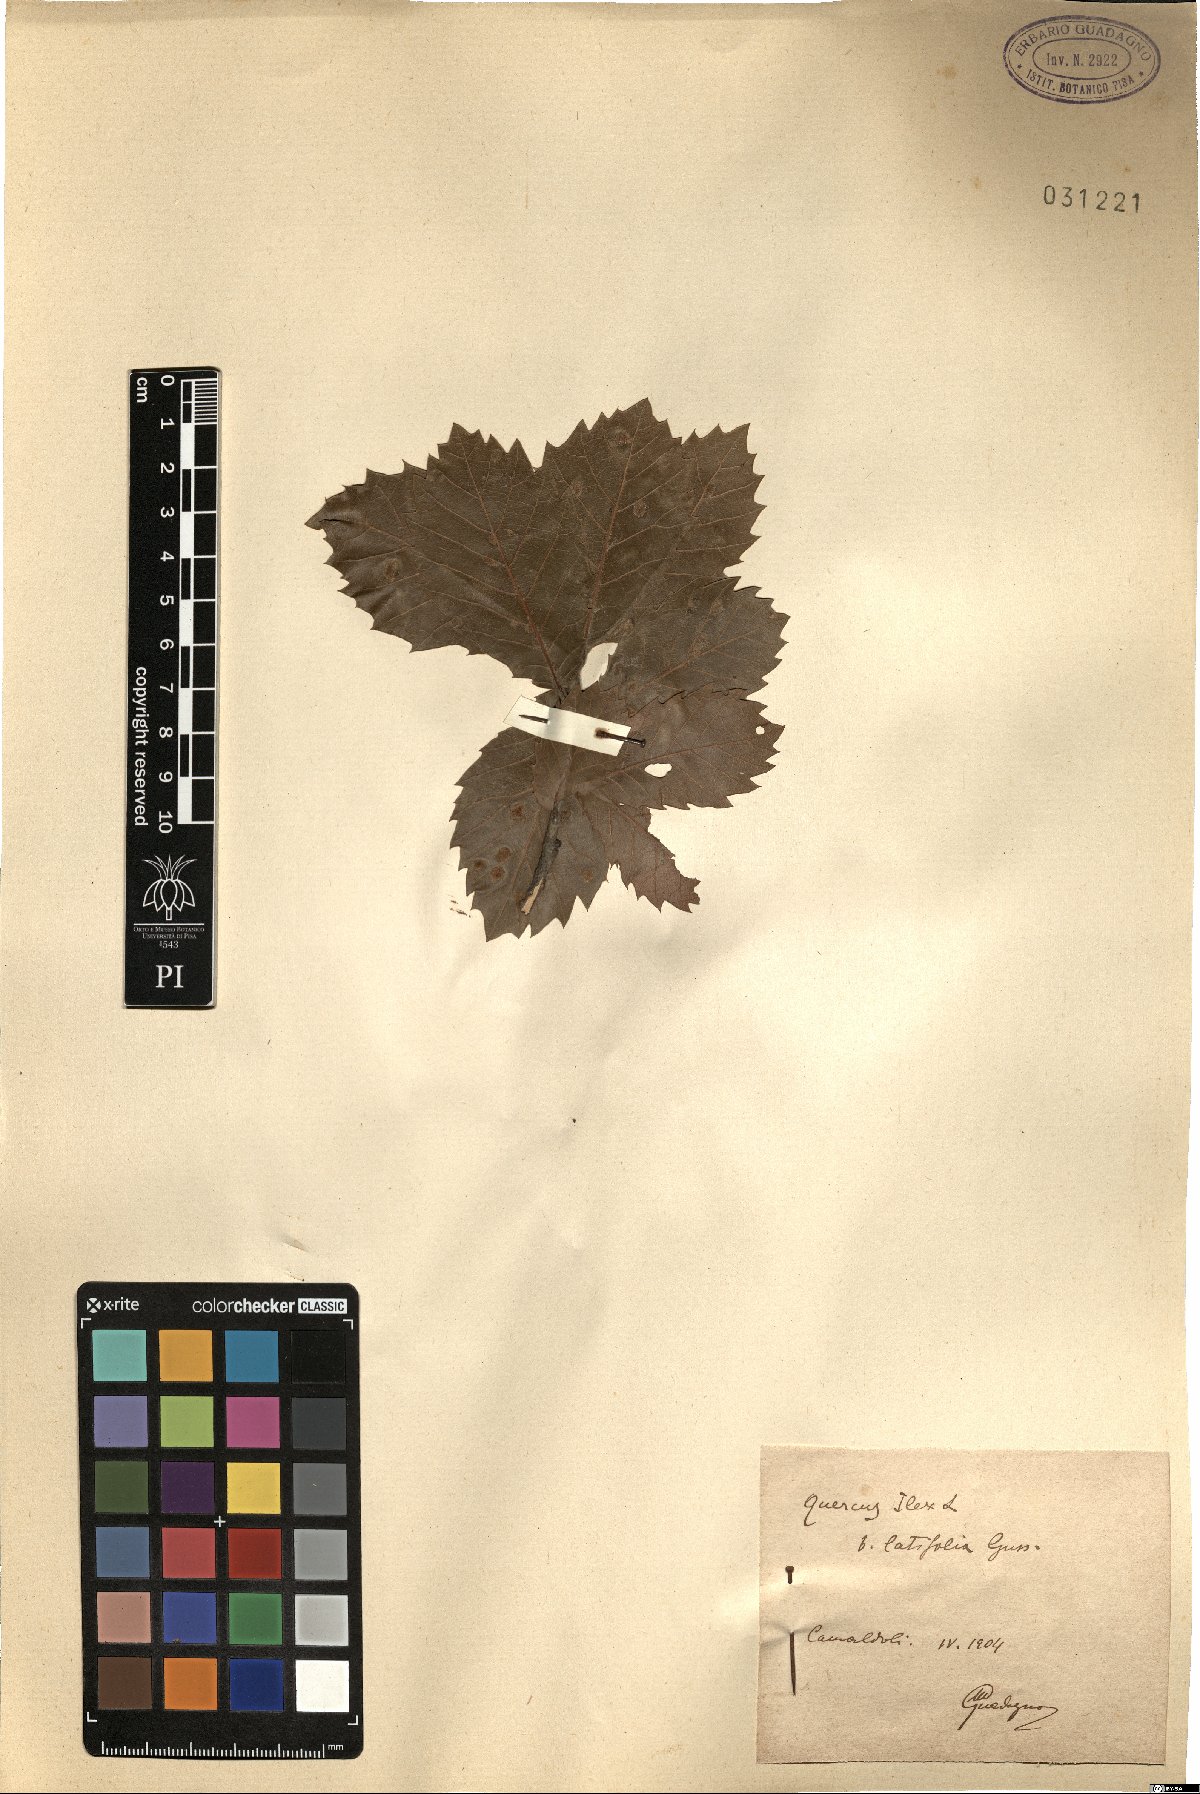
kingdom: Plantae
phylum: Tracheophyta
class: Magnoliopsida
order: Fagales
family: Fagaceae
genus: Quercus
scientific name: Quercus ilex
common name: Evergreen oak
